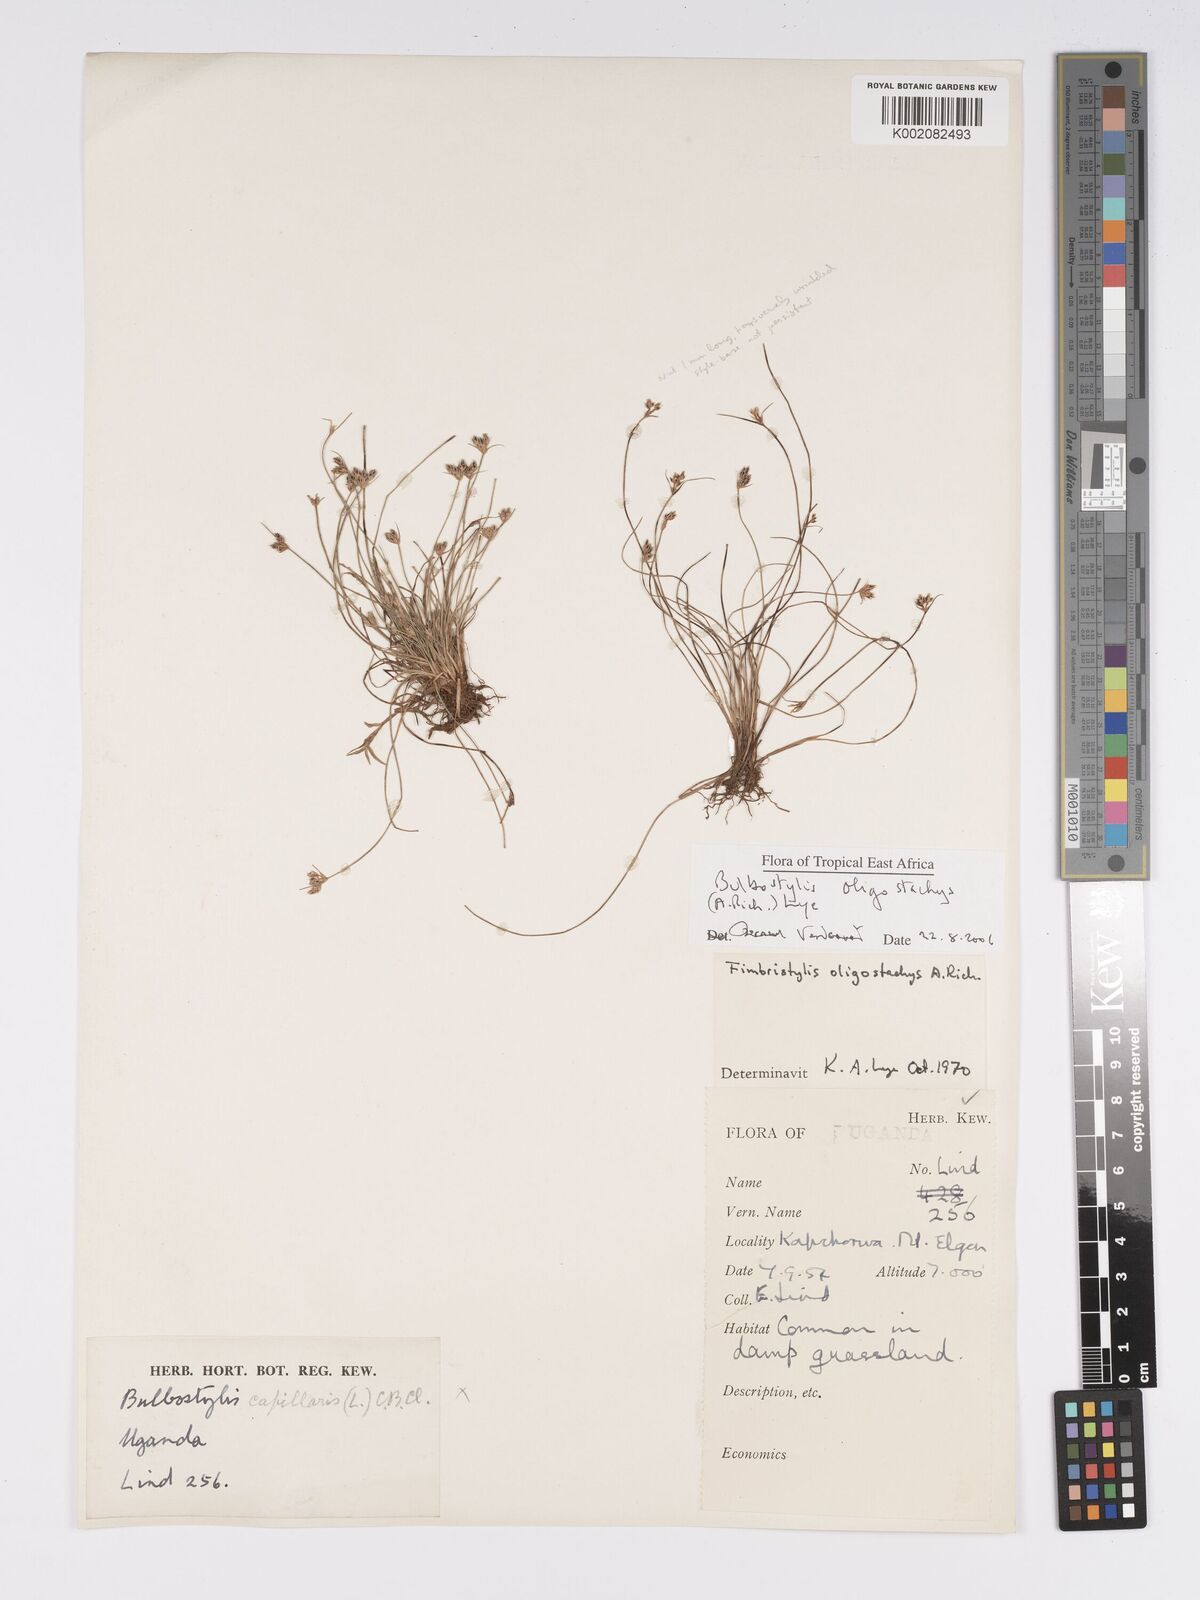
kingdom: Plantae
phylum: Tracheophyta
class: Liliopsida
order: Poales
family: Cyperaceae
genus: Bulbostylis
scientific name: Bulbostylis oligostachys
